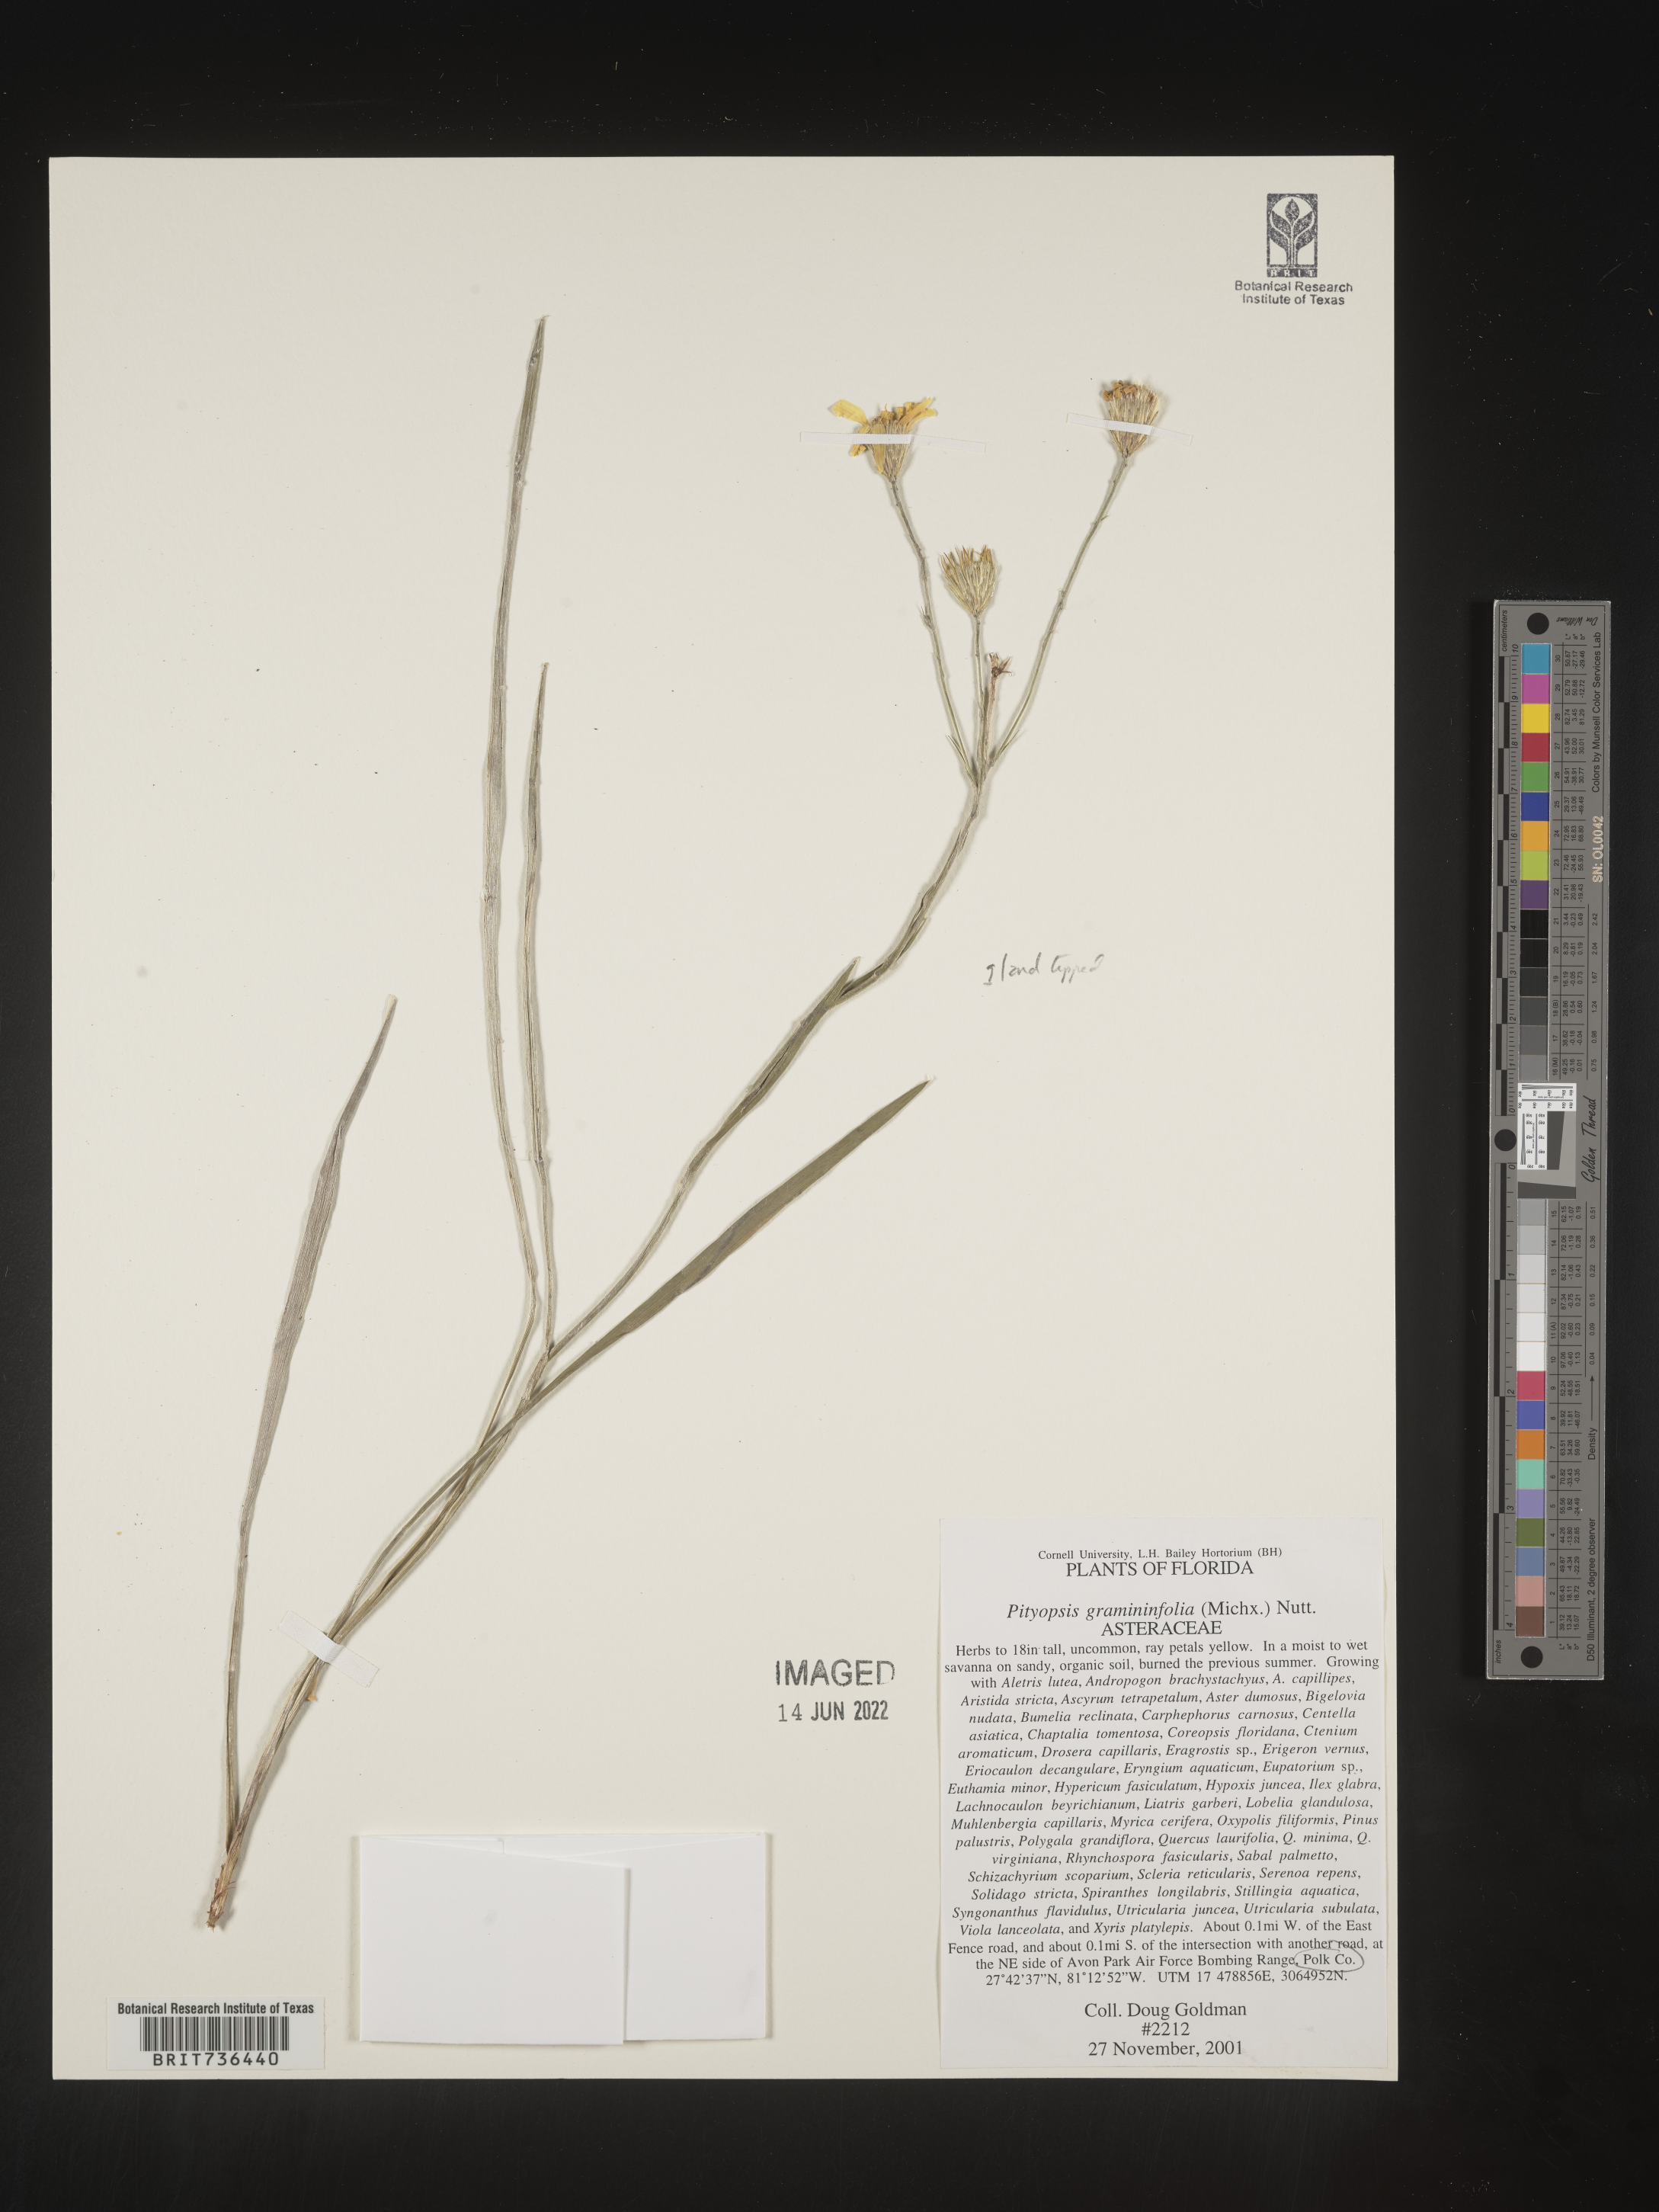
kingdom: Plantae
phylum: Tracheophyta
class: Magnoliopsida
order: Asterales
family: Asteraceae
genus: Pityopsis
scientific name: Pityopsis tracyi
